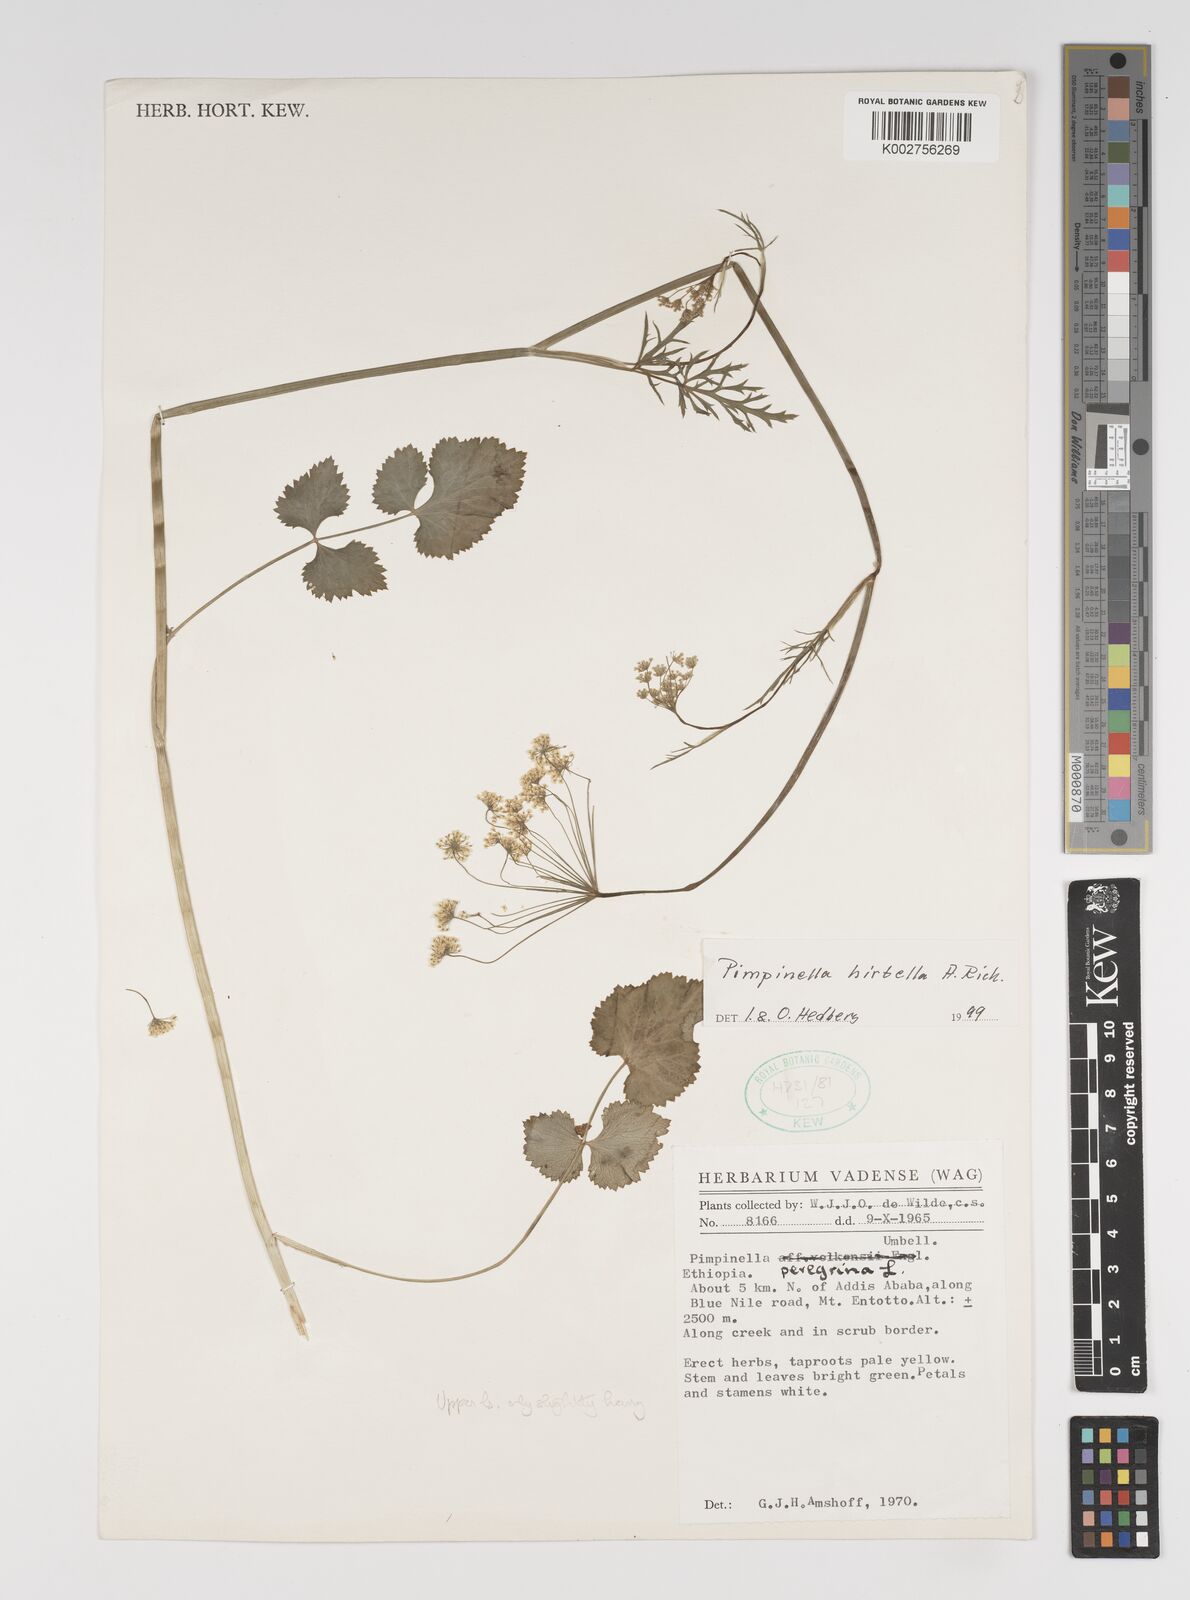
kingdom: Plantae
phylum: Tracheophyta
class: Magnoliopsida
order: Apiales
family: Apiaceae
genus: Pimpinella
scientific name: Pimpinella hirtella
